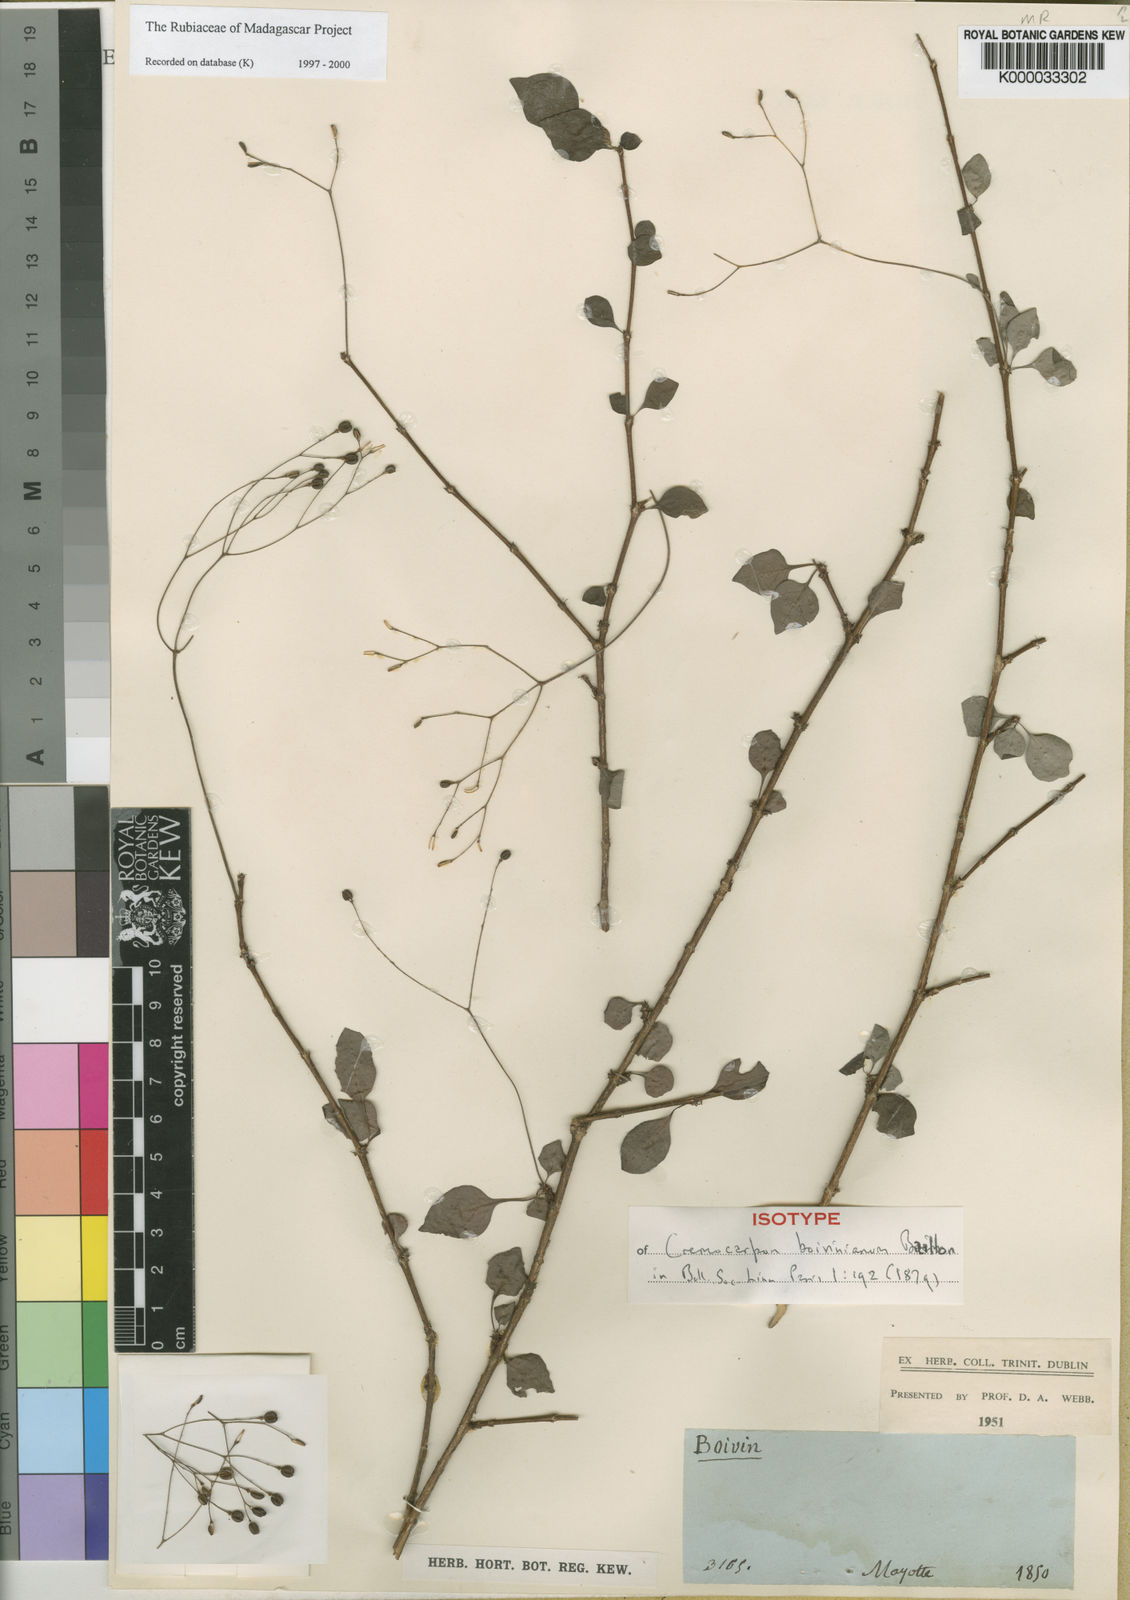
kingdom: Plantae
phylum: Tracheophyta
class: Magnoliopsida
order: Gentianales
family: Rubiaceae
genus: Psychotria
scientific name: Psychotria boiviniana
